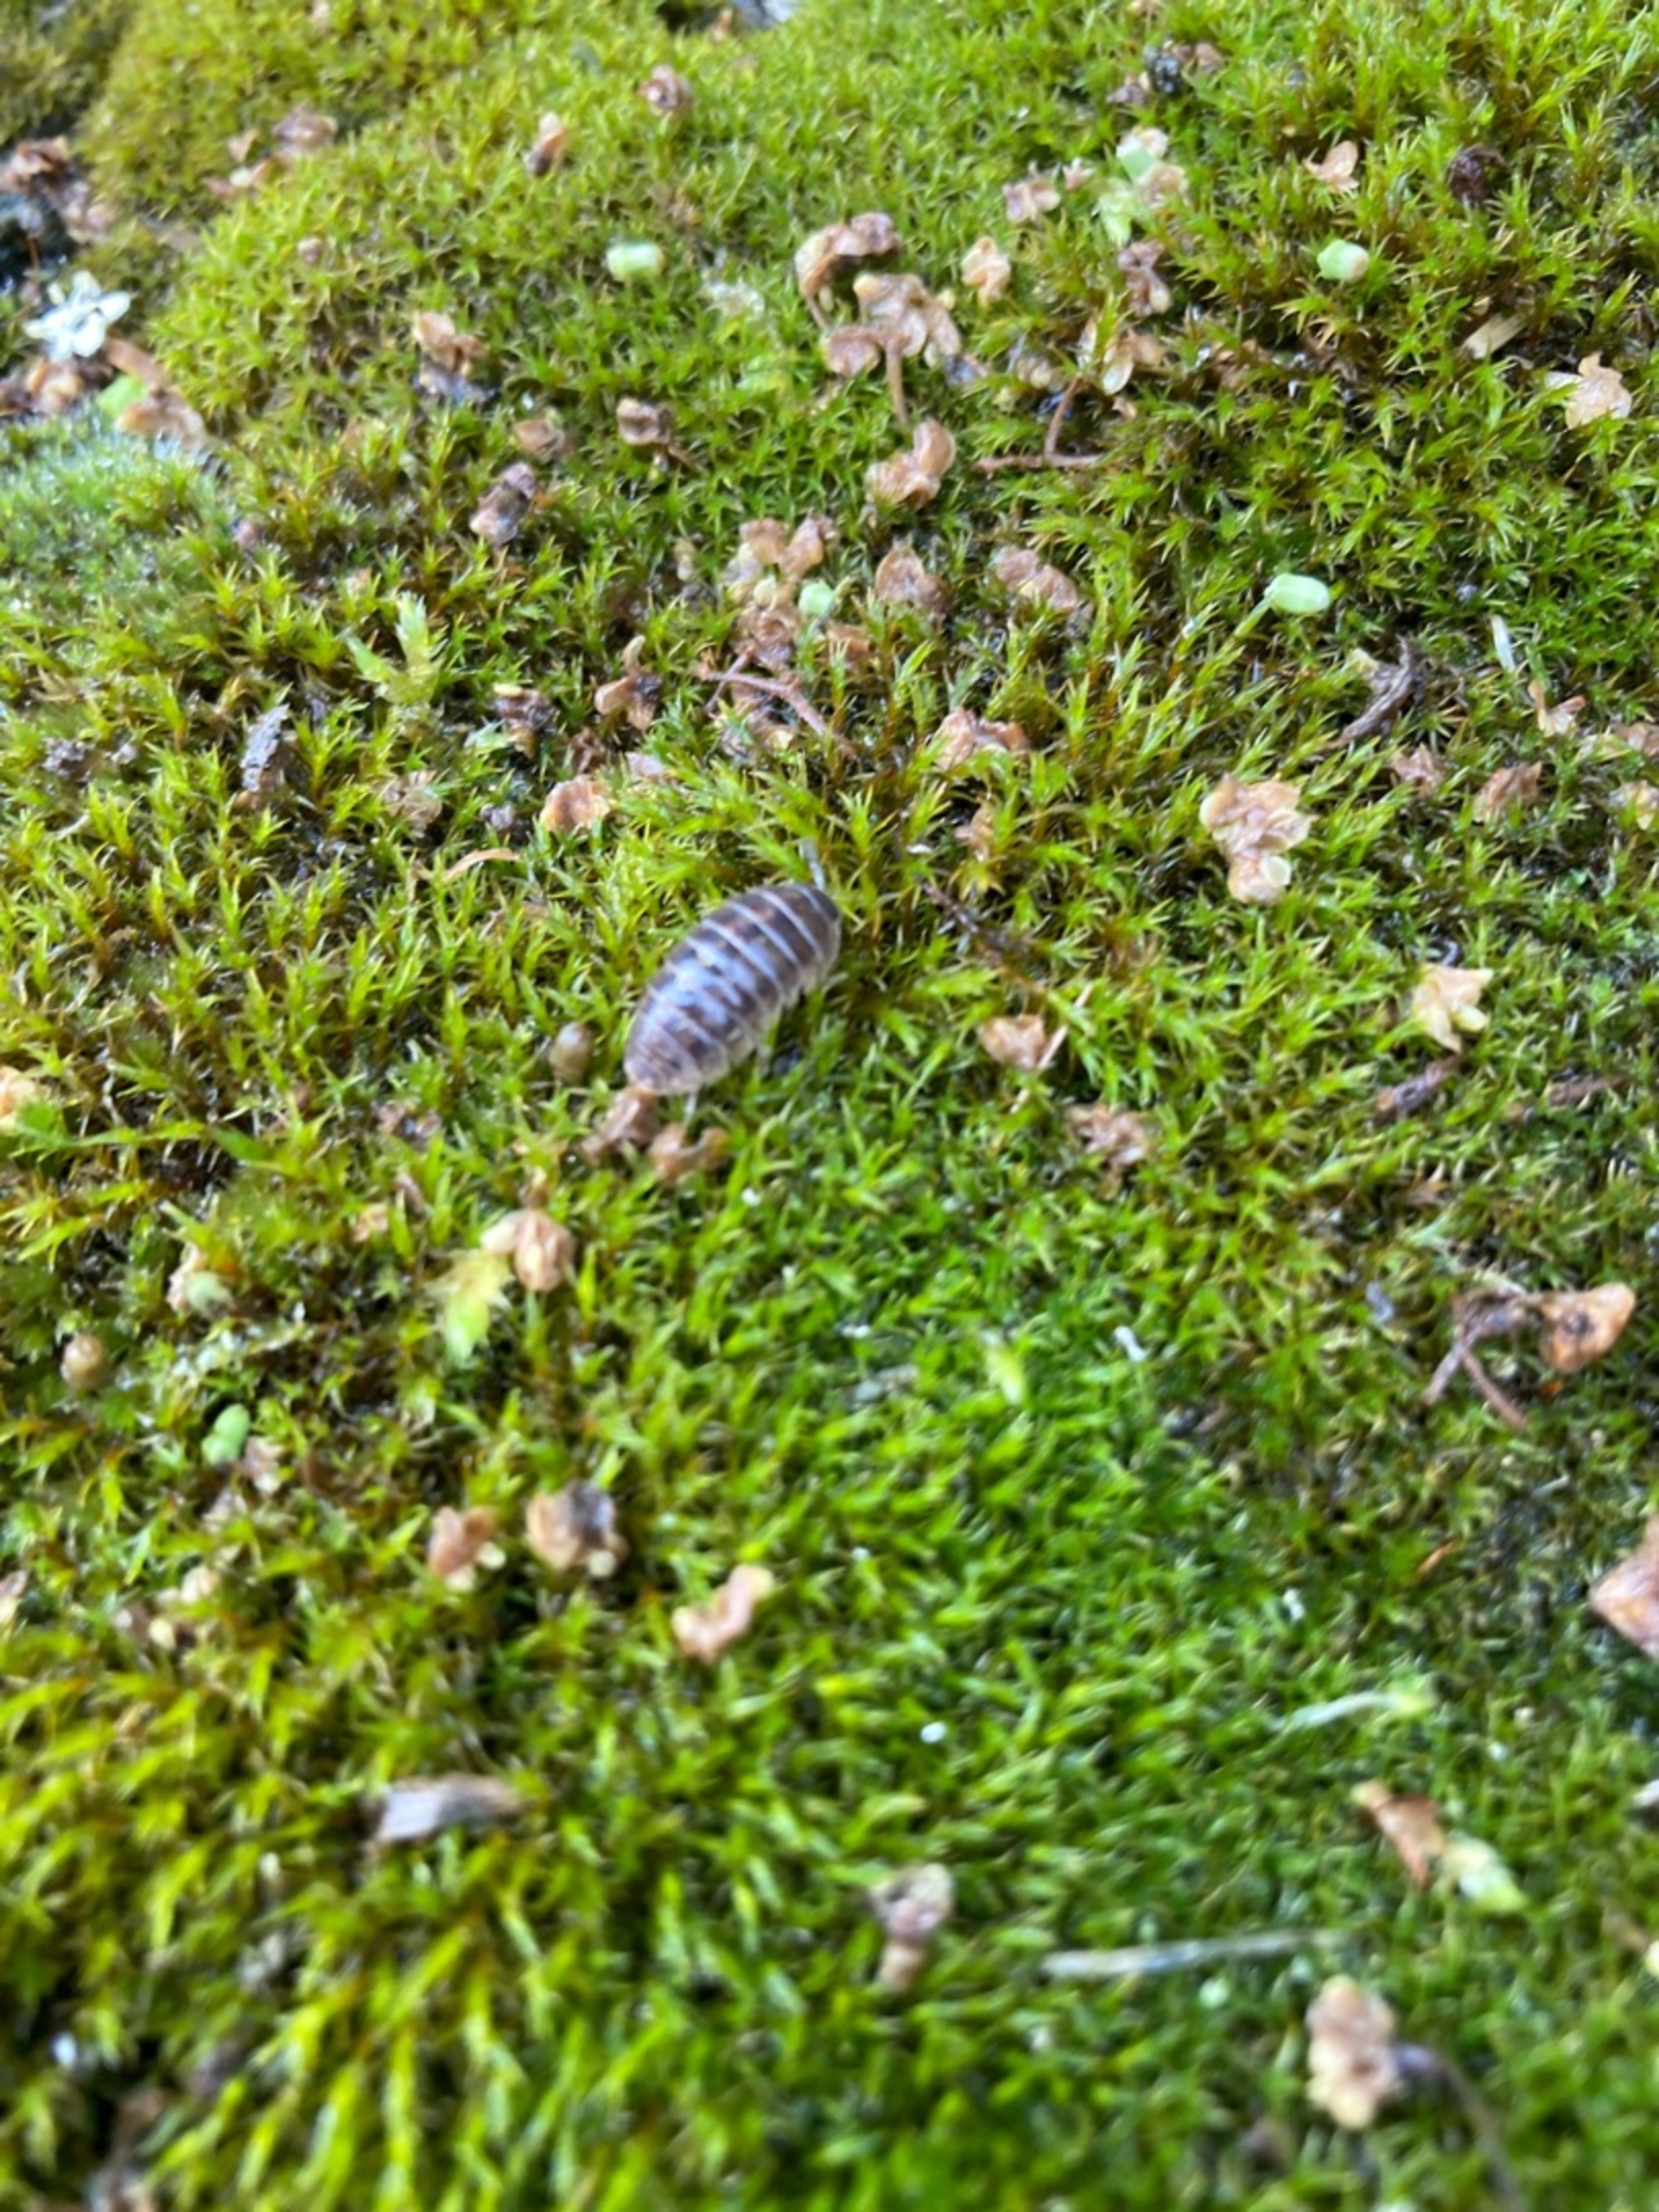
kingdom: Animalia
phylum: Arthropoda
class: Malacostraca
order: Isopoda
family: Armadillidiidae
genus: Armadillidium
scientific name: Armadillidium vulgare
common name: Almindelig kuglebænkebider
